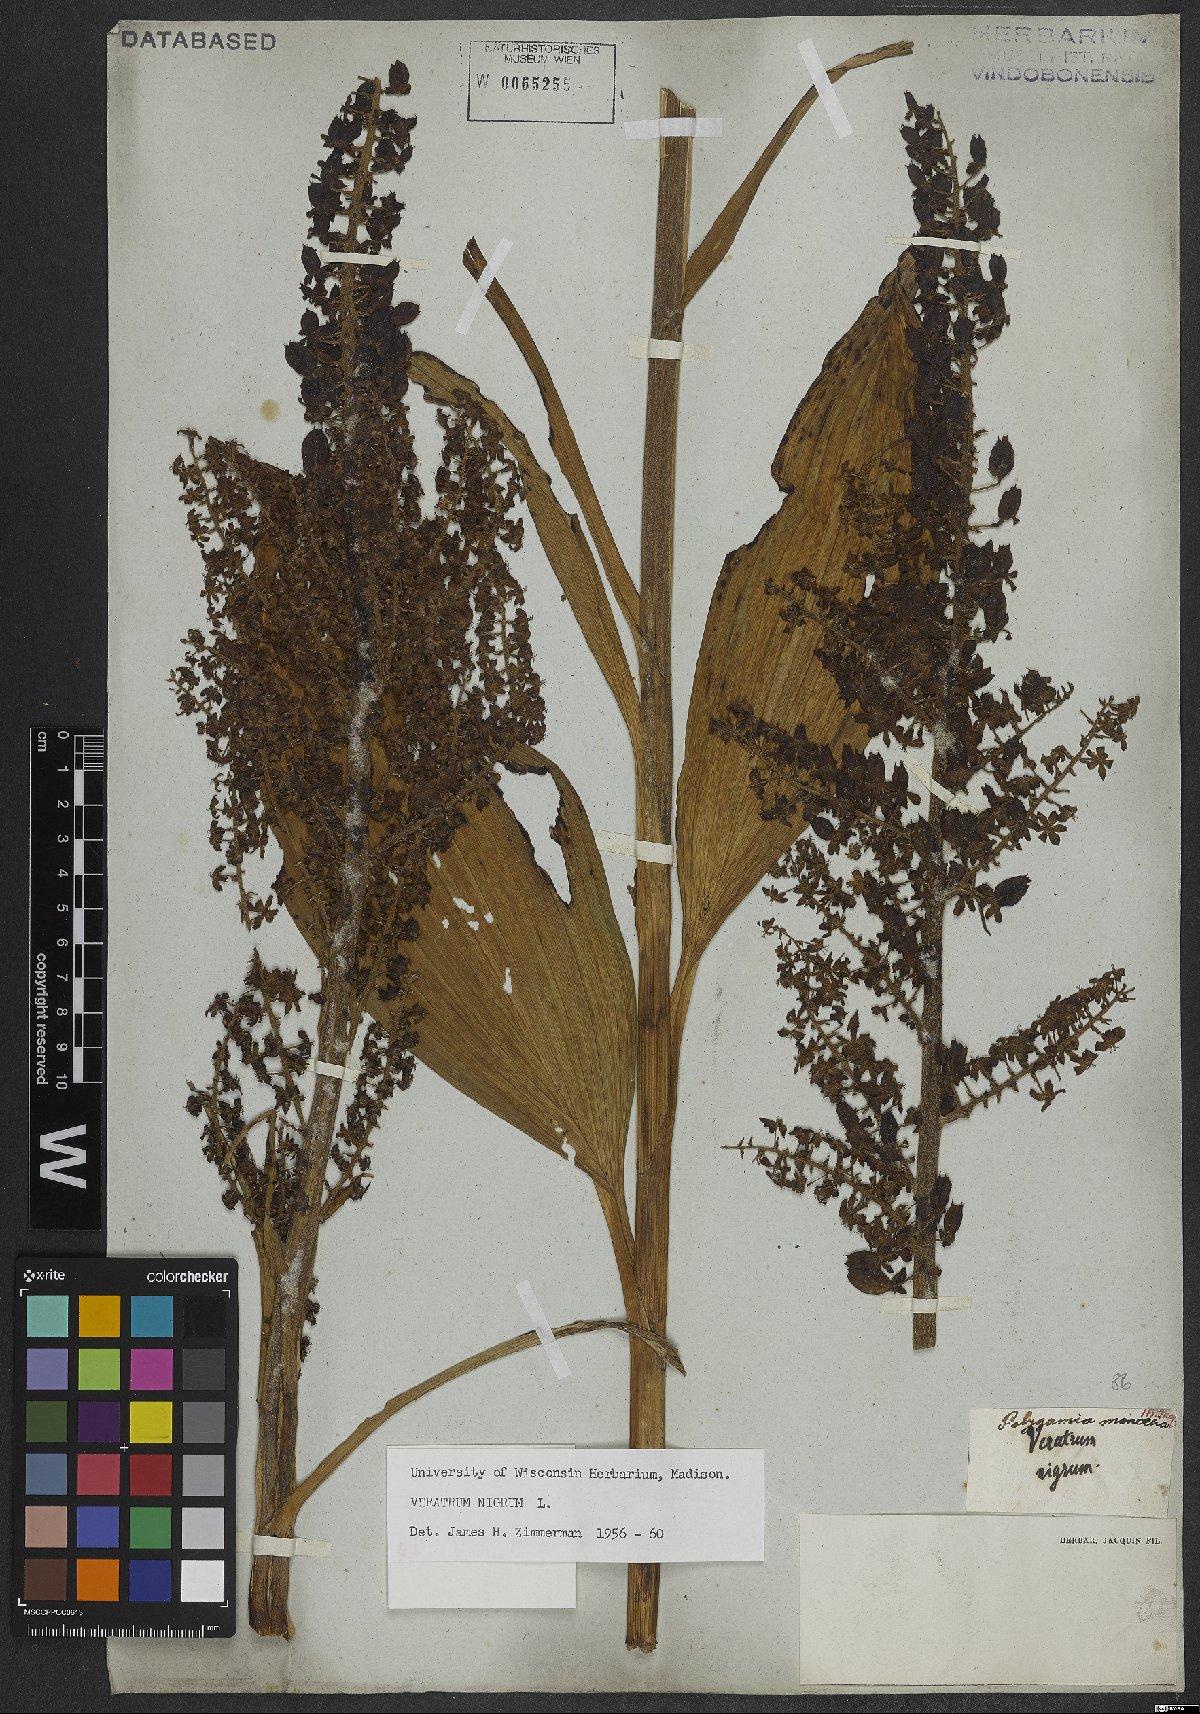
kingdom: Plantae
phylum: Tracheophyta
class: Liliopsida
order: Liliales
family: Melanthiaceae
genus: Veratrum
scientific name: Veratrum nigrum
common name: Black veratrum
